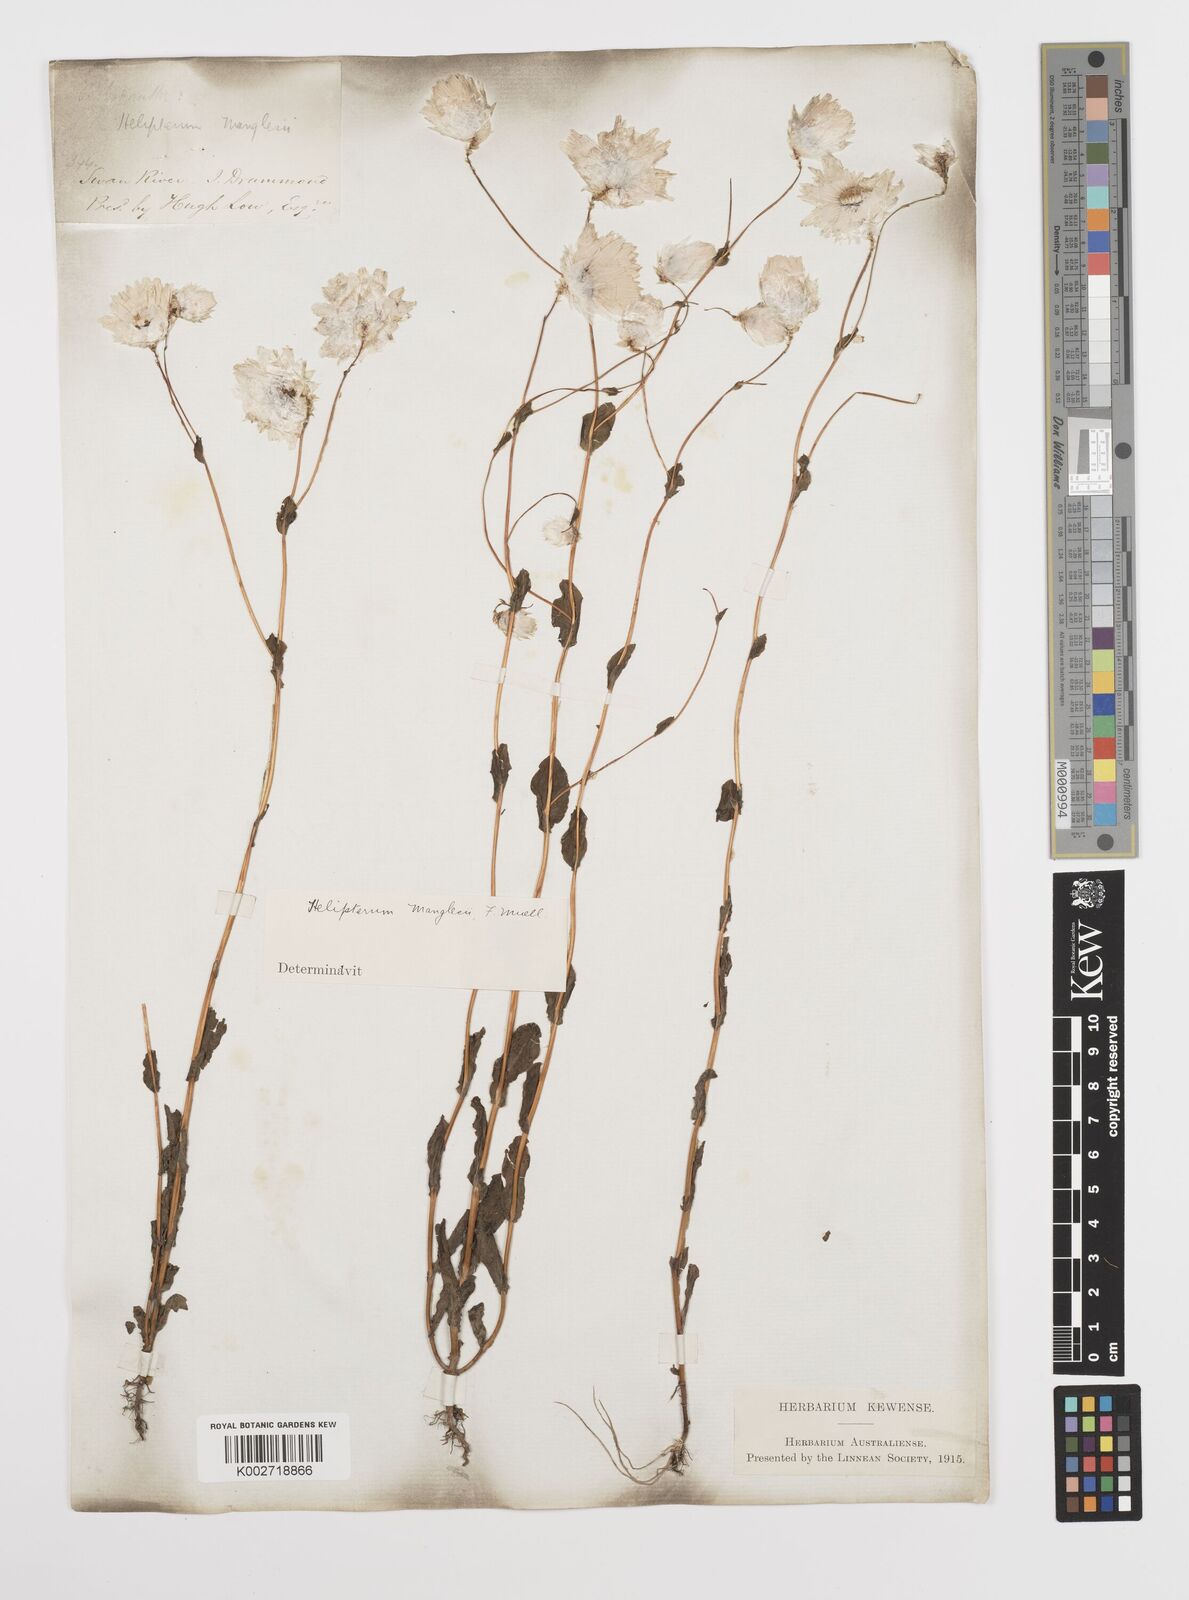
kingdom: Plantae
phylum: Tracheophyta
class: Magnoliopsida
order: Asterales
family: Asteraceae
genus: Rhodanthe
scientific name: Rhodanthe manglesii
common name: Pink sunray
